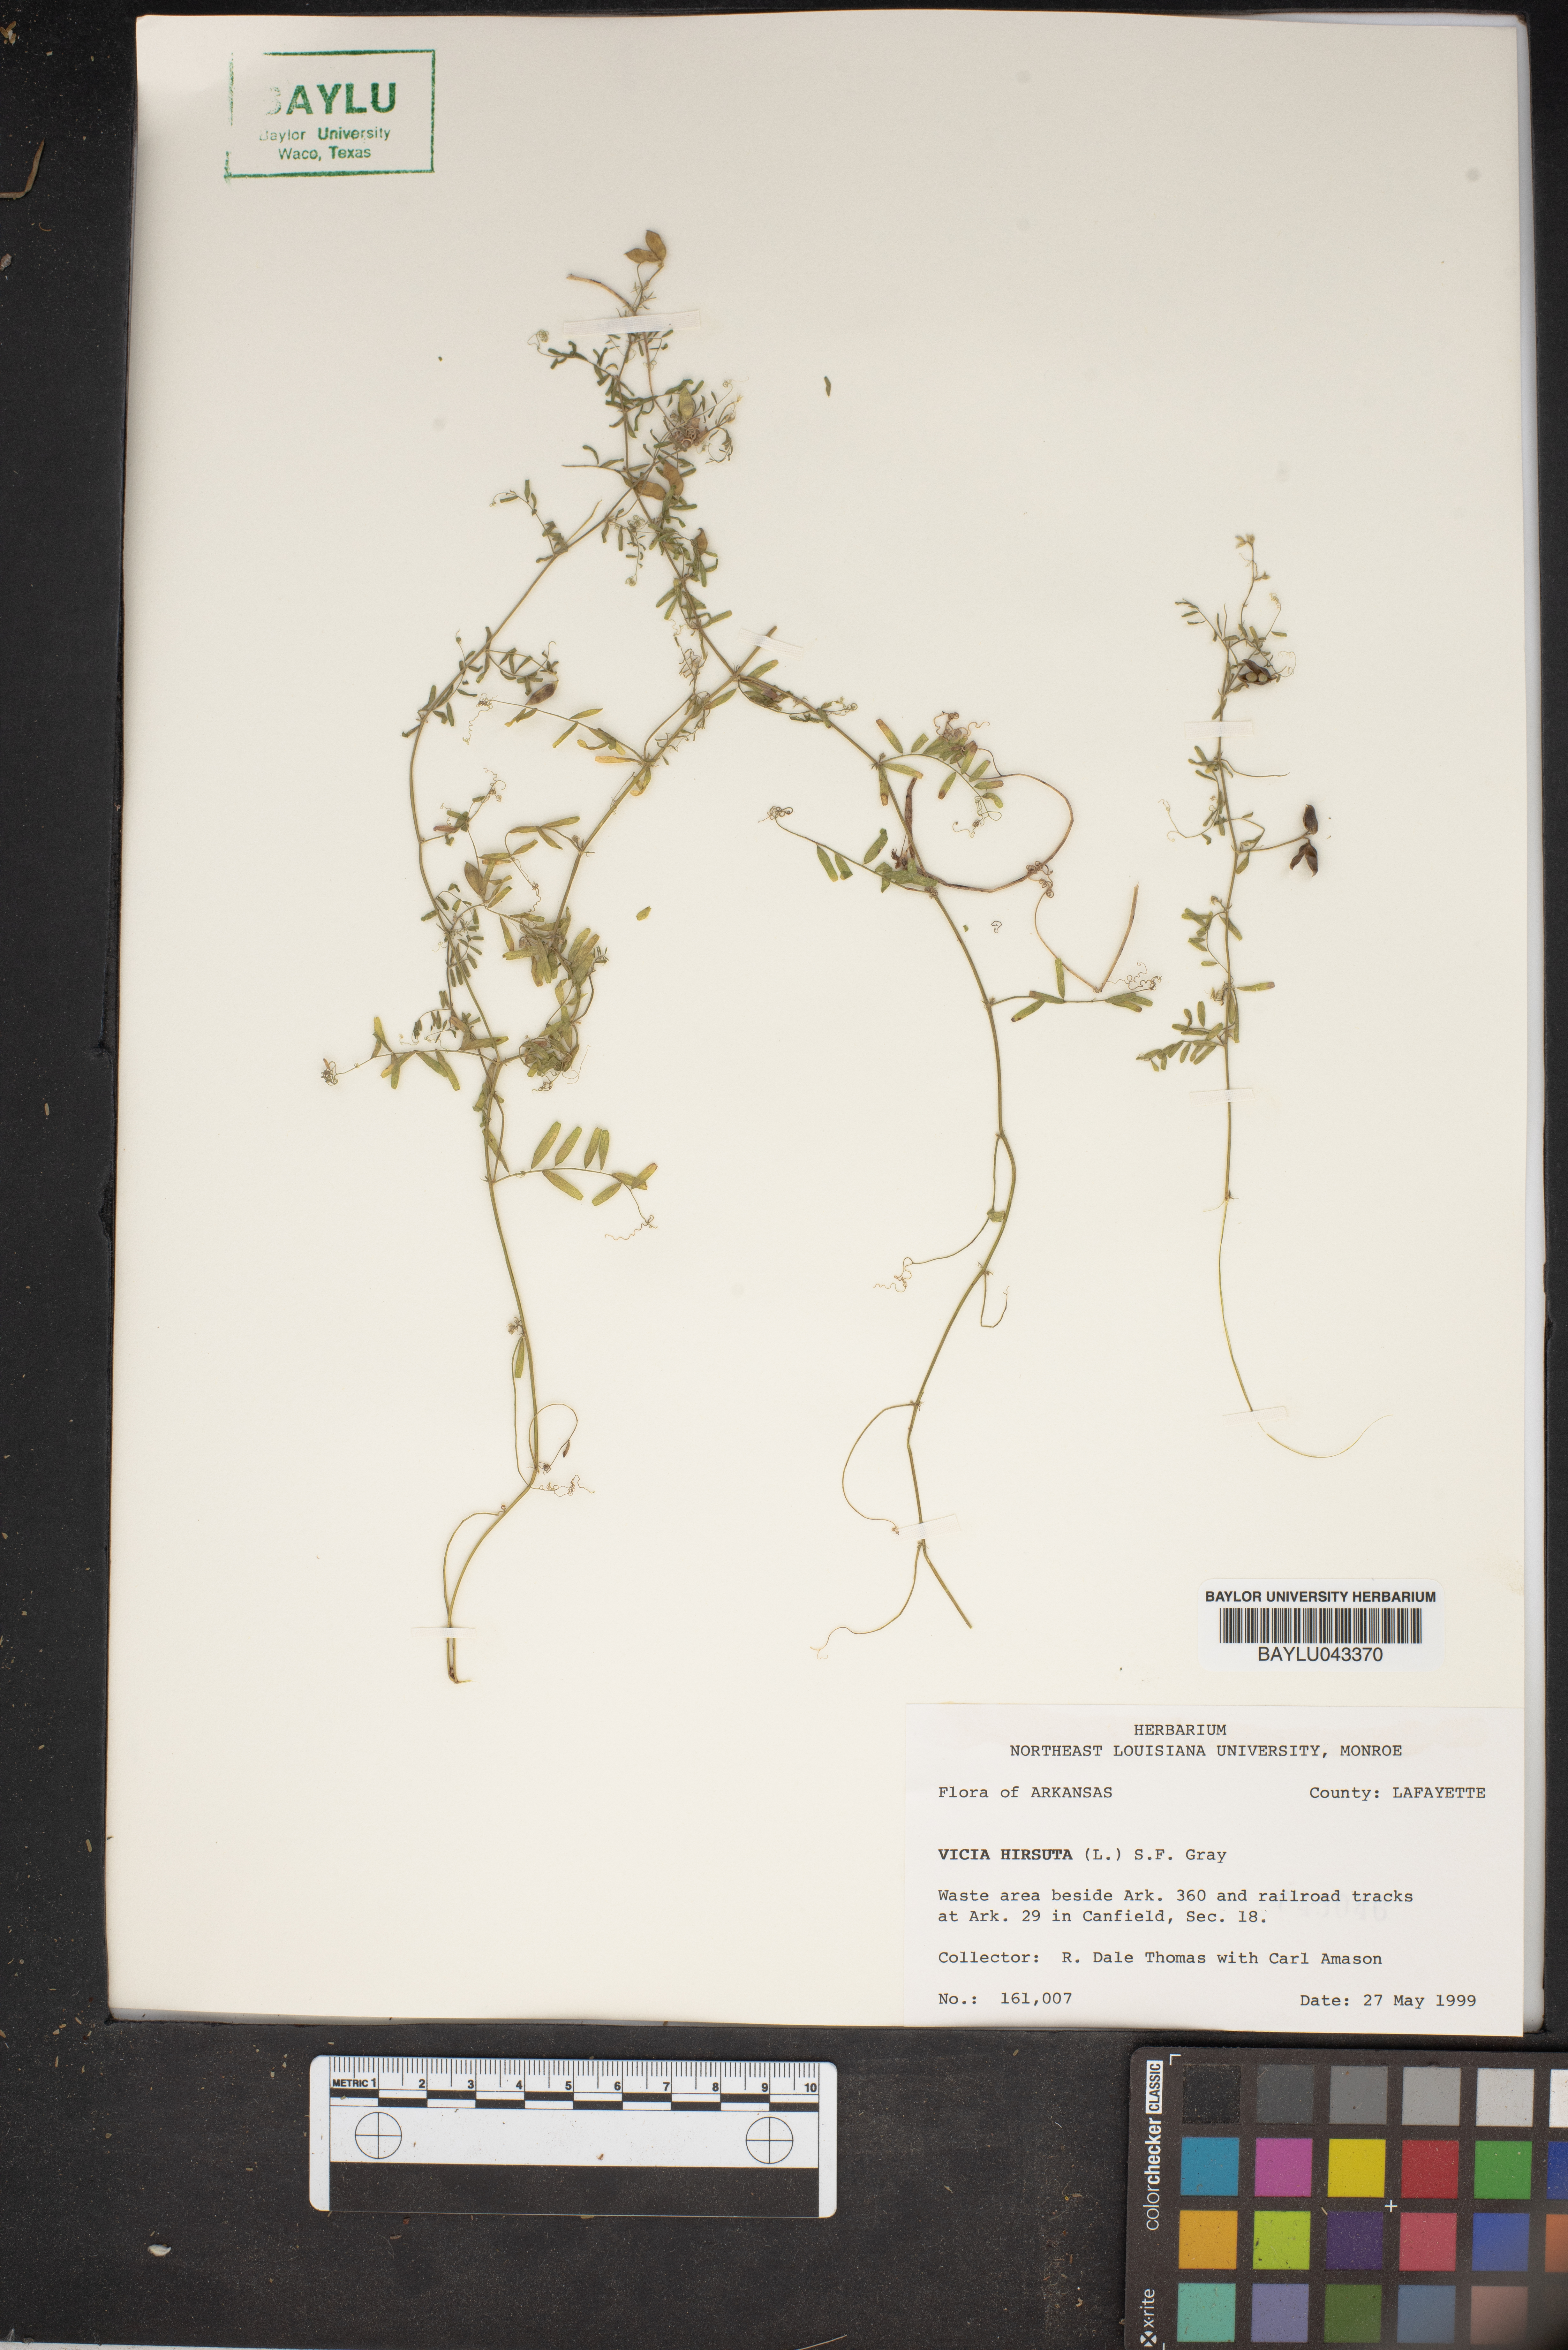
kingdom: Plantae
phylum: Tracheophyta
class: Magnoliopsida
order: Fabales
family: Fabaceae
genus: Vicia
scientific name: Vicia hirsuta
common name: Tiny vetch
